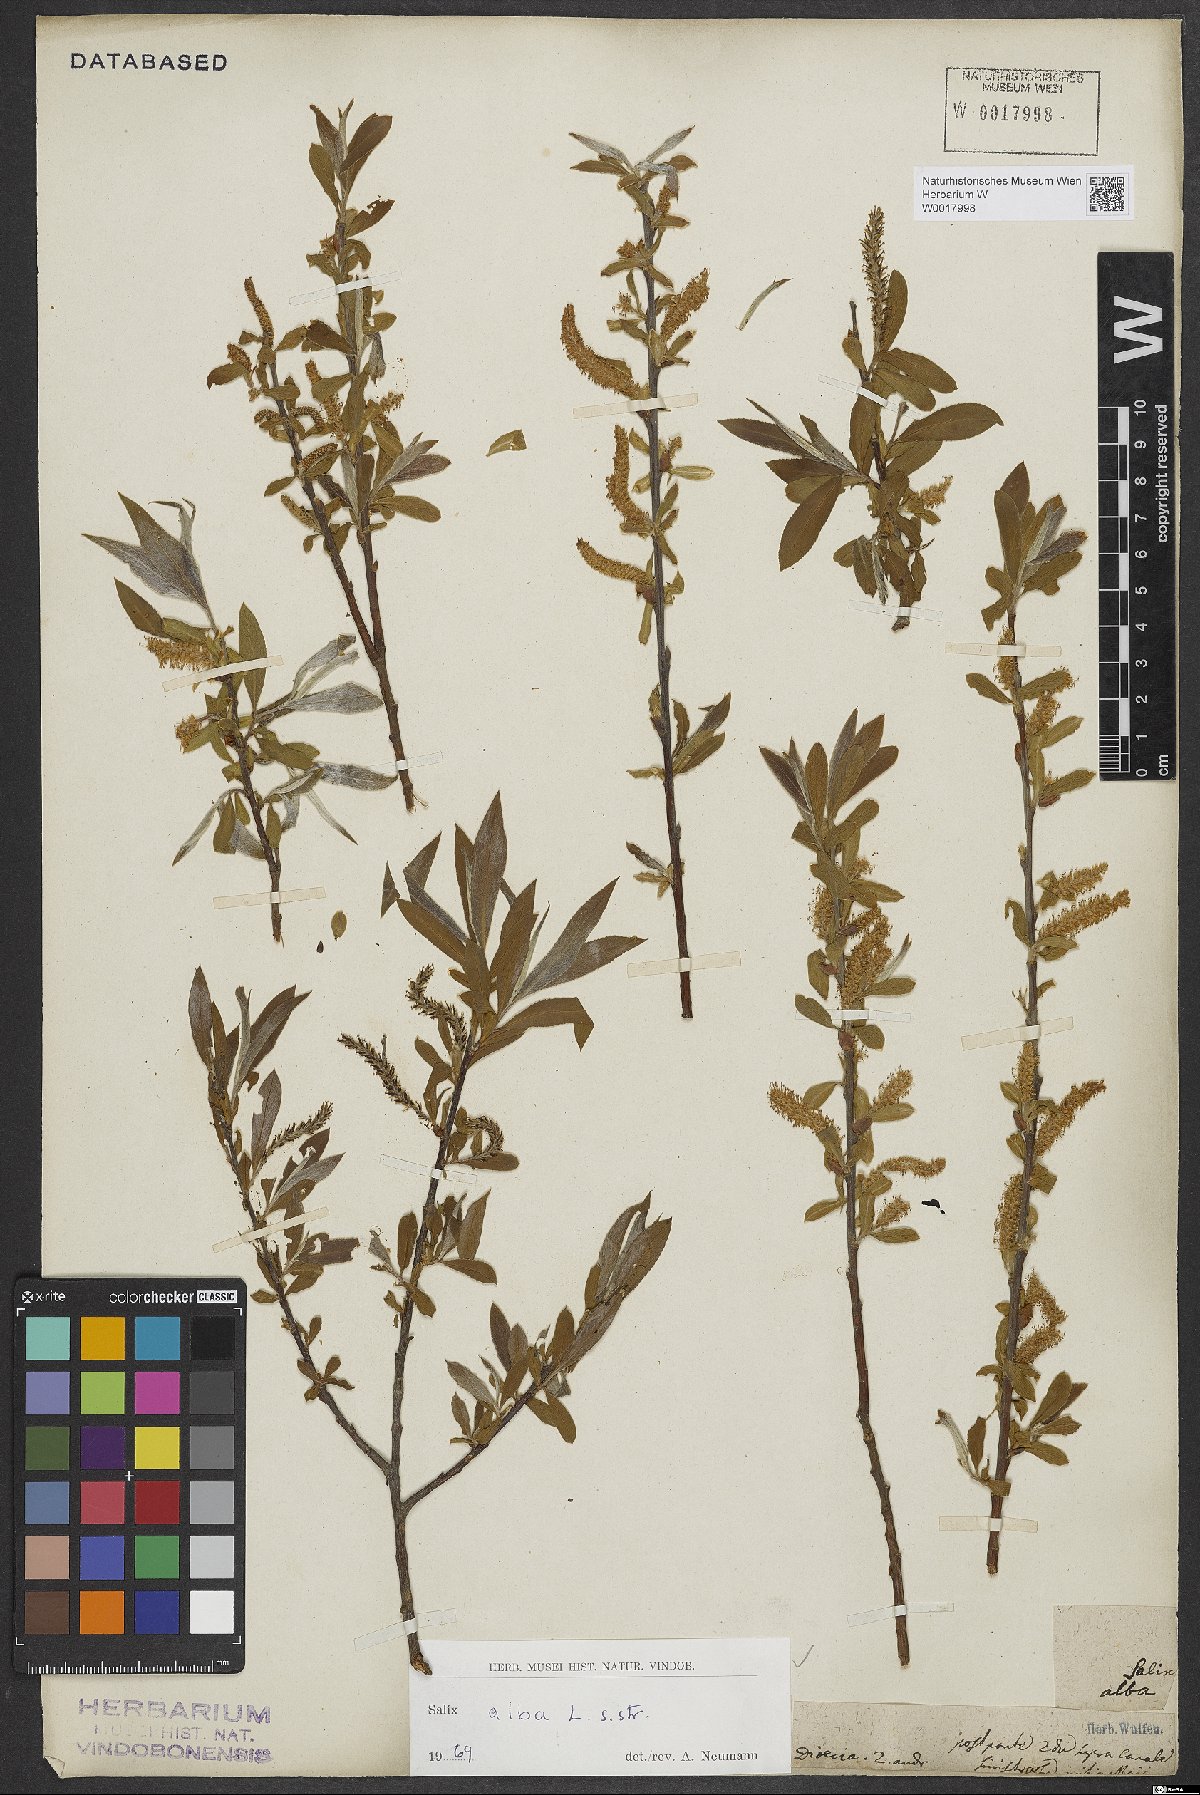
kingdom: Plantae
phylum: Tracheophyta
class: Magnoliopsida
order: Malpighiales
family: Salicaceae
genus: Salix
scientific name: Salix alba
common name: White willow
